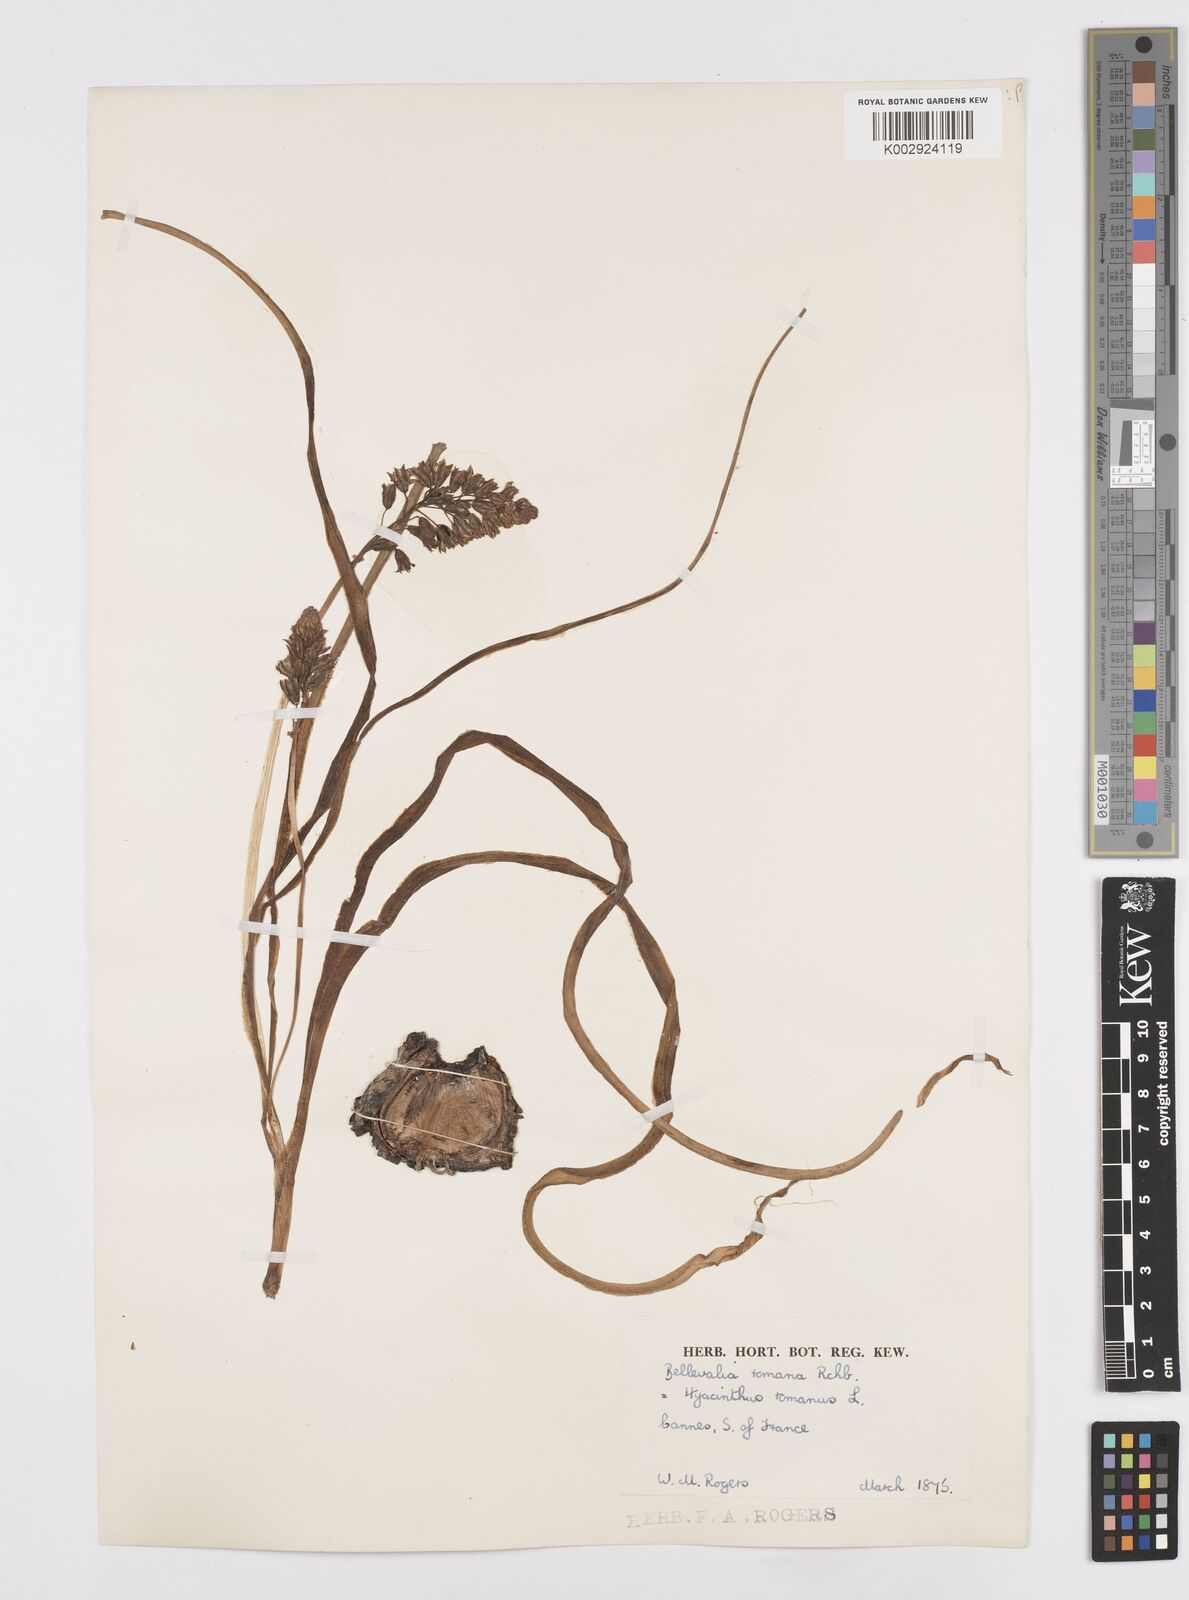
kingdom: Plantae
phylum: Tracheophyta
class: Liliopsida
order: Asparagales
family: Asparagaceae
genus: Bellevalia
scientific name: Bellevalia
